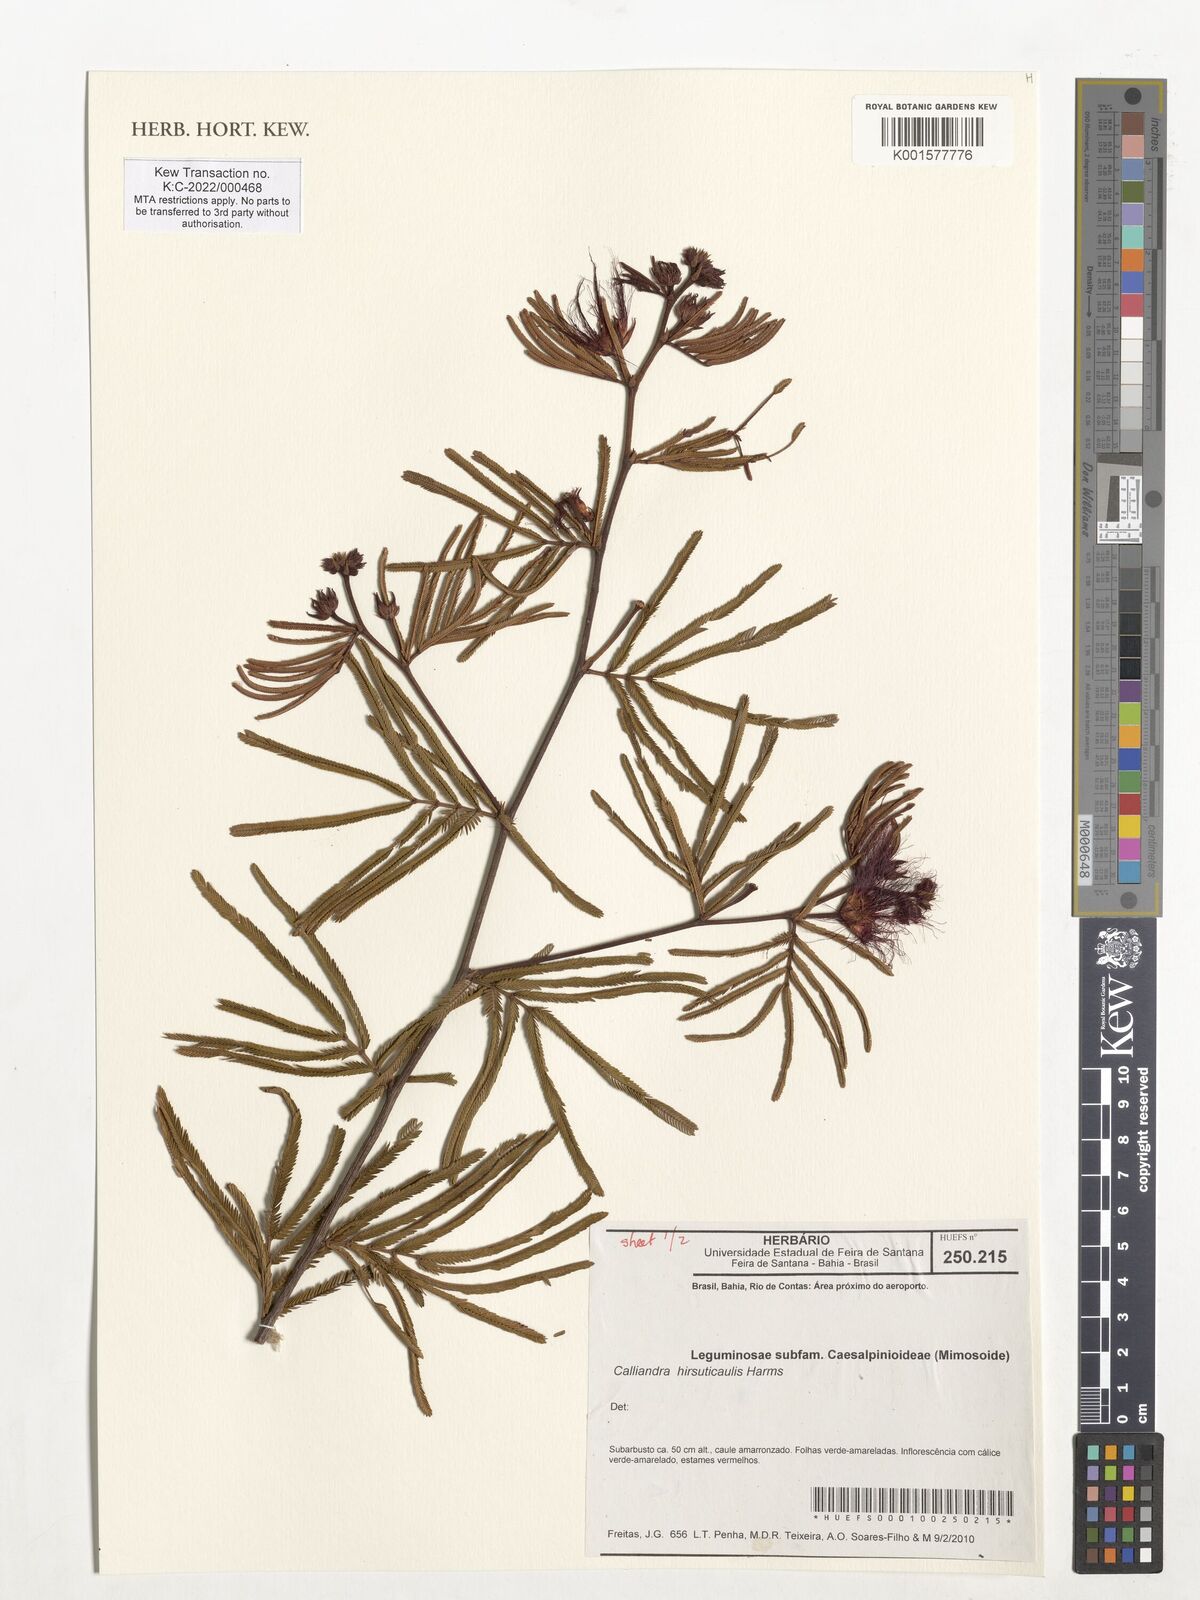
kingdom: Plantae
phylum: Tracheophyta
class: Magnoliopsida
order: Fabales
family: Fabaceae
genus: Calliandra
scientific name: Calliandra hirsuticaulis
